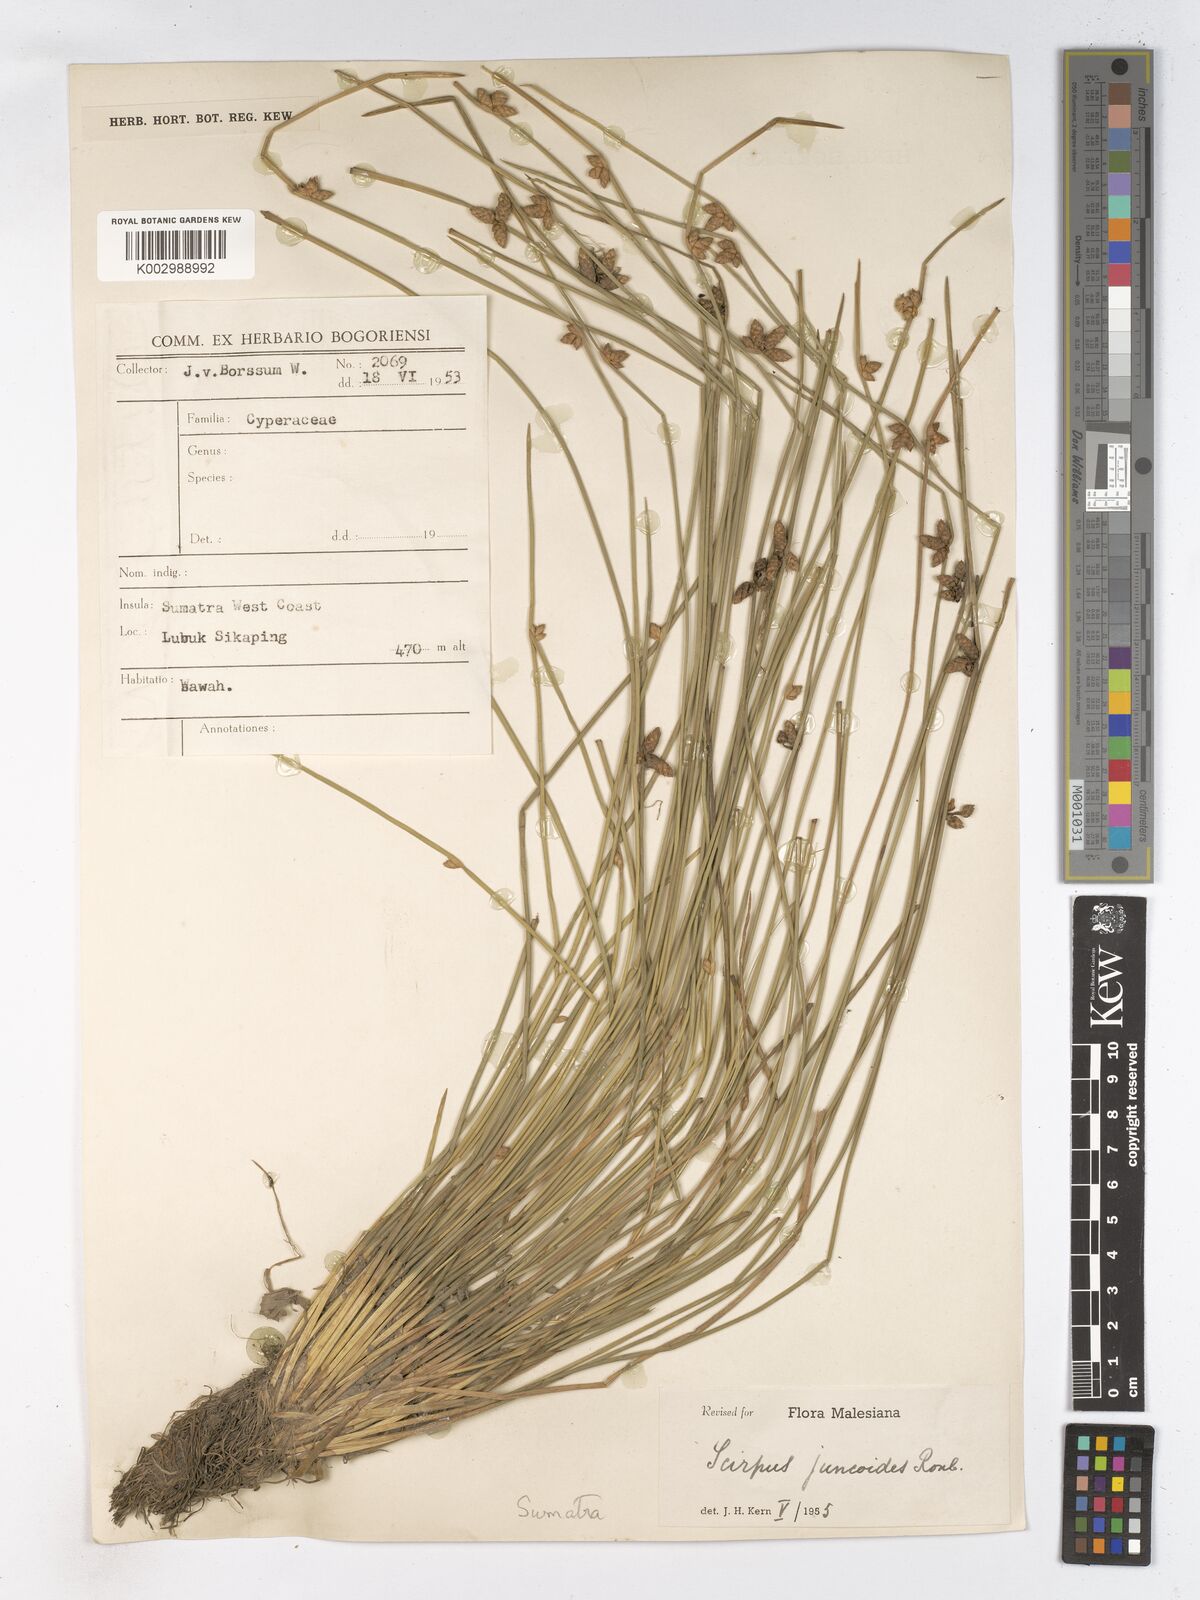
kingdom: Plantae
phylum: Tracheophyta
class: Liliopsida
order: Poales
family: Cyperaceae
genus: Schoenoplectiella
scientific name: Schoenoplectiella juncoides
